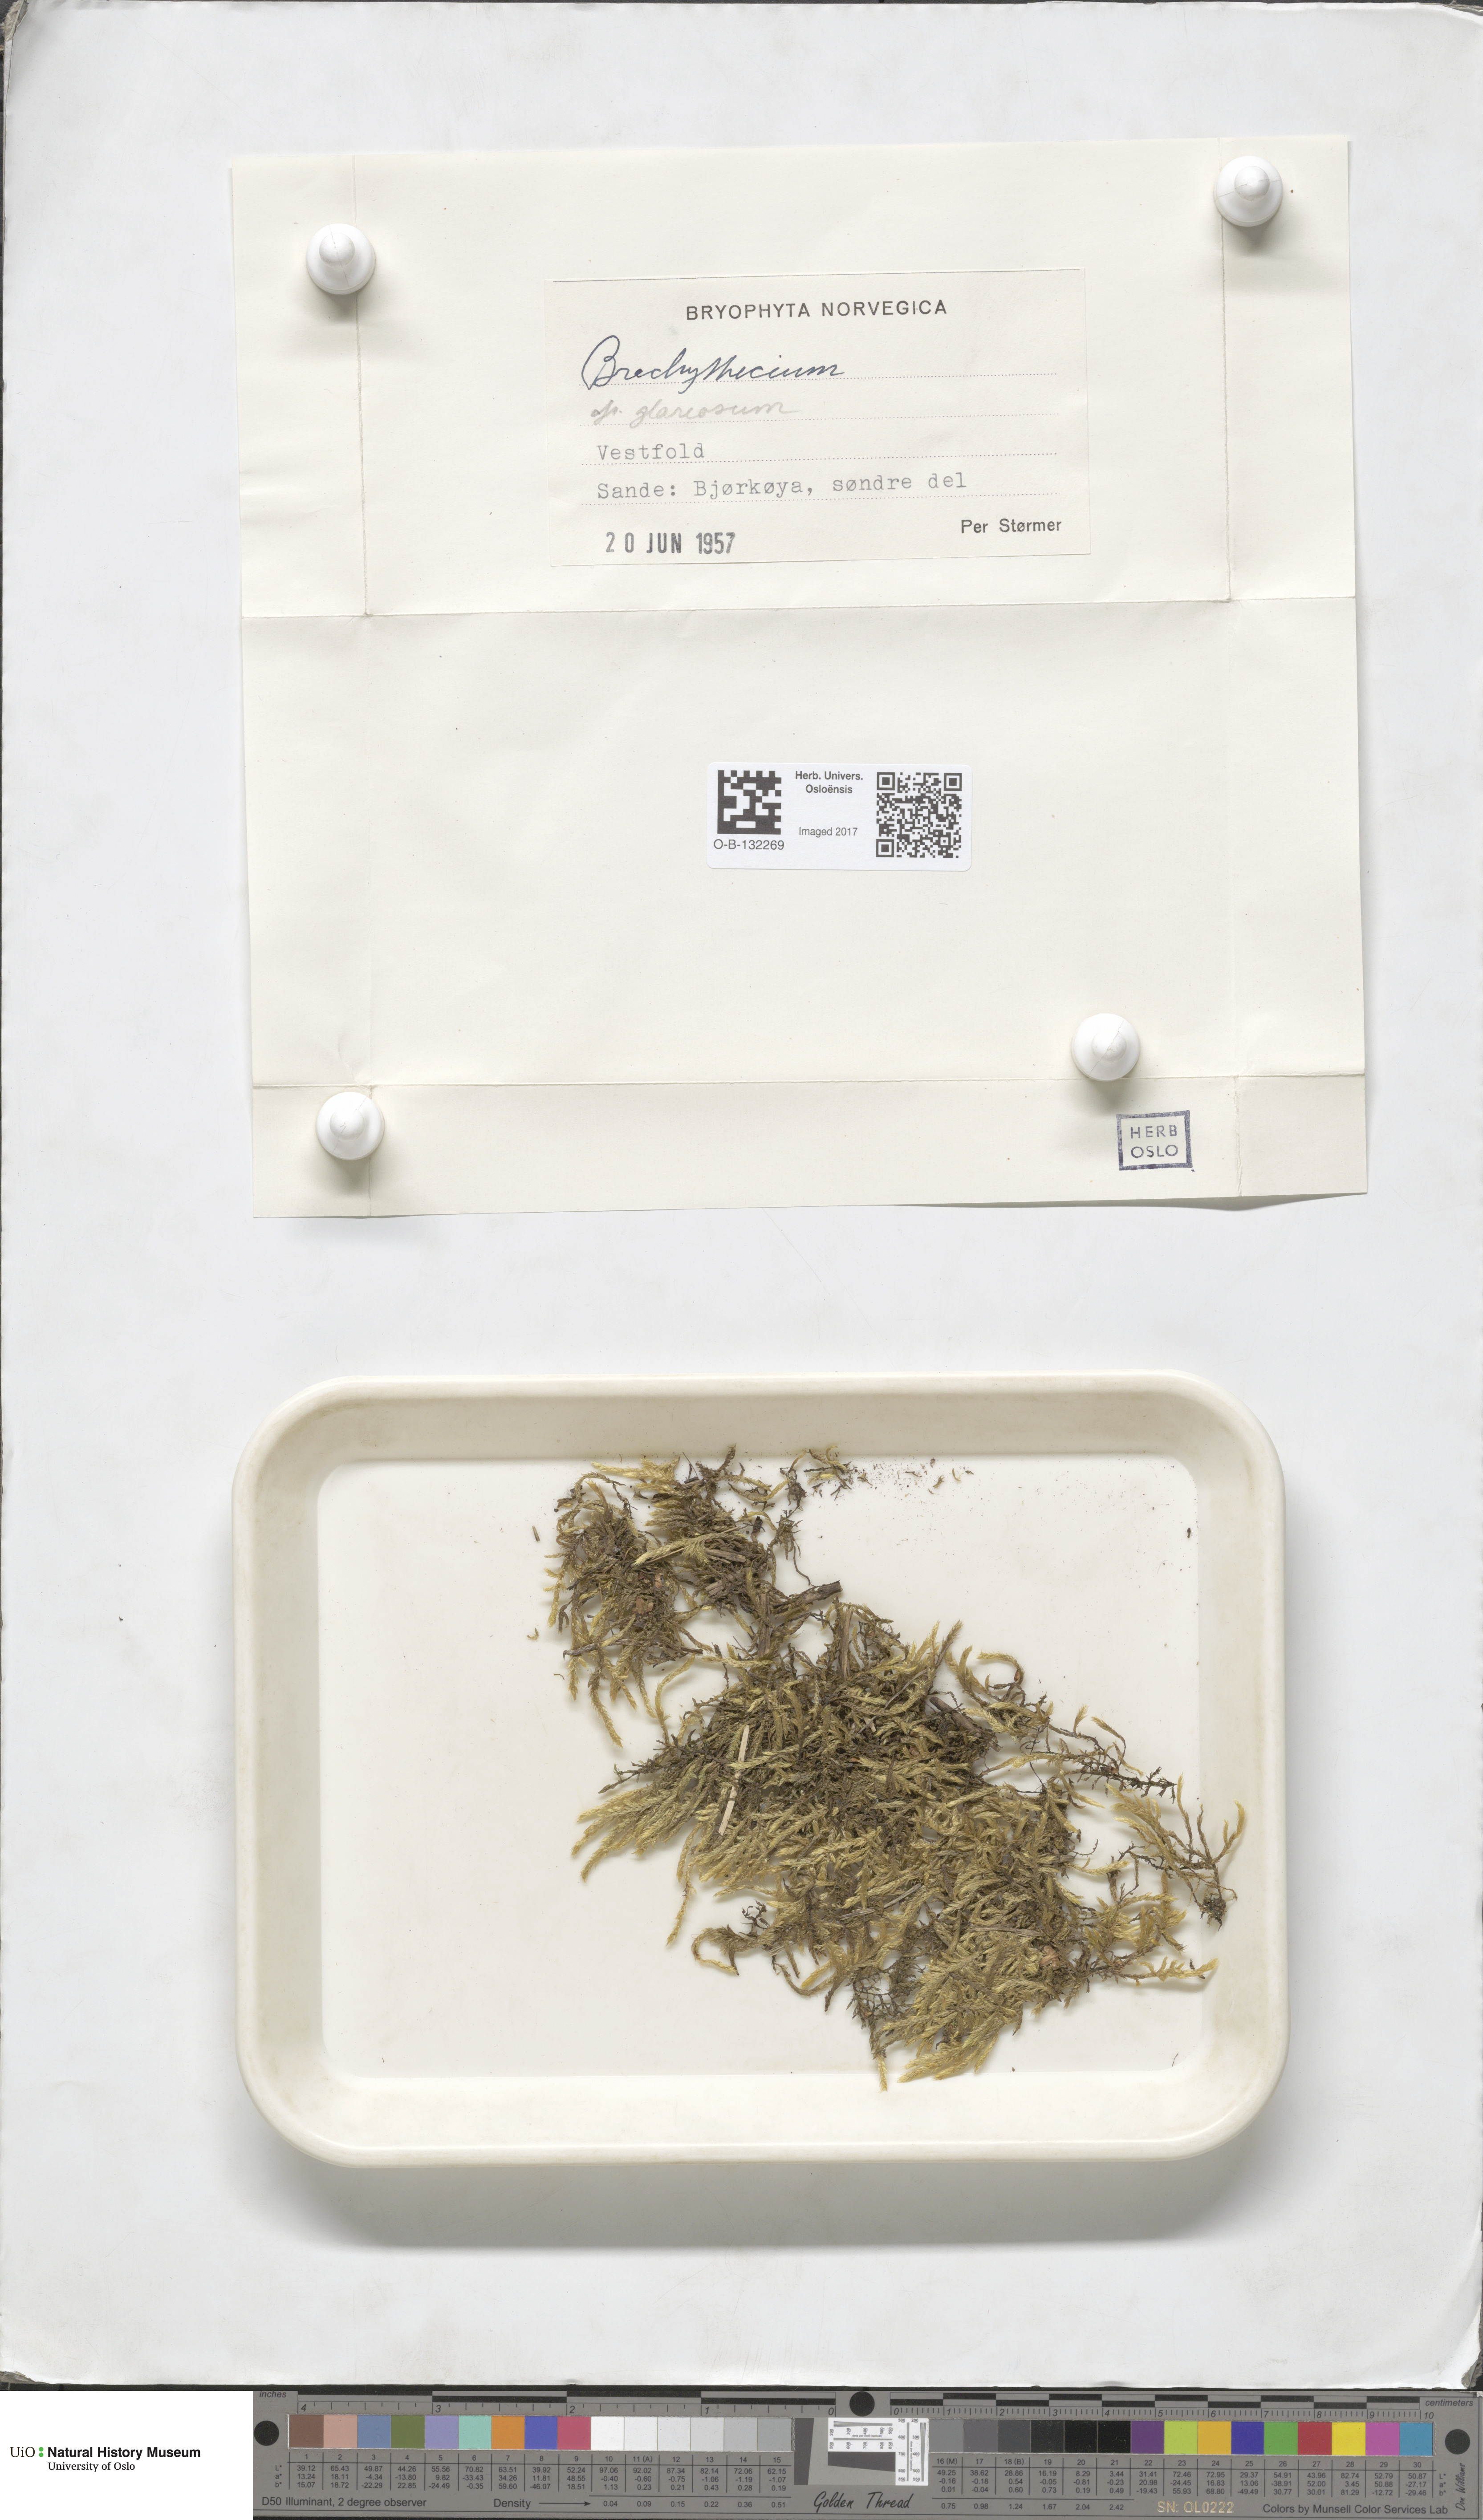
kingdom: Plantae
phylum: Bryophyta
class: Bryopsida
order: Hypnales
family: Brachytheciaceae
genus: Brachythecium
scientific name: Brachythecium glareosum
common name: Streaky feather-moss
